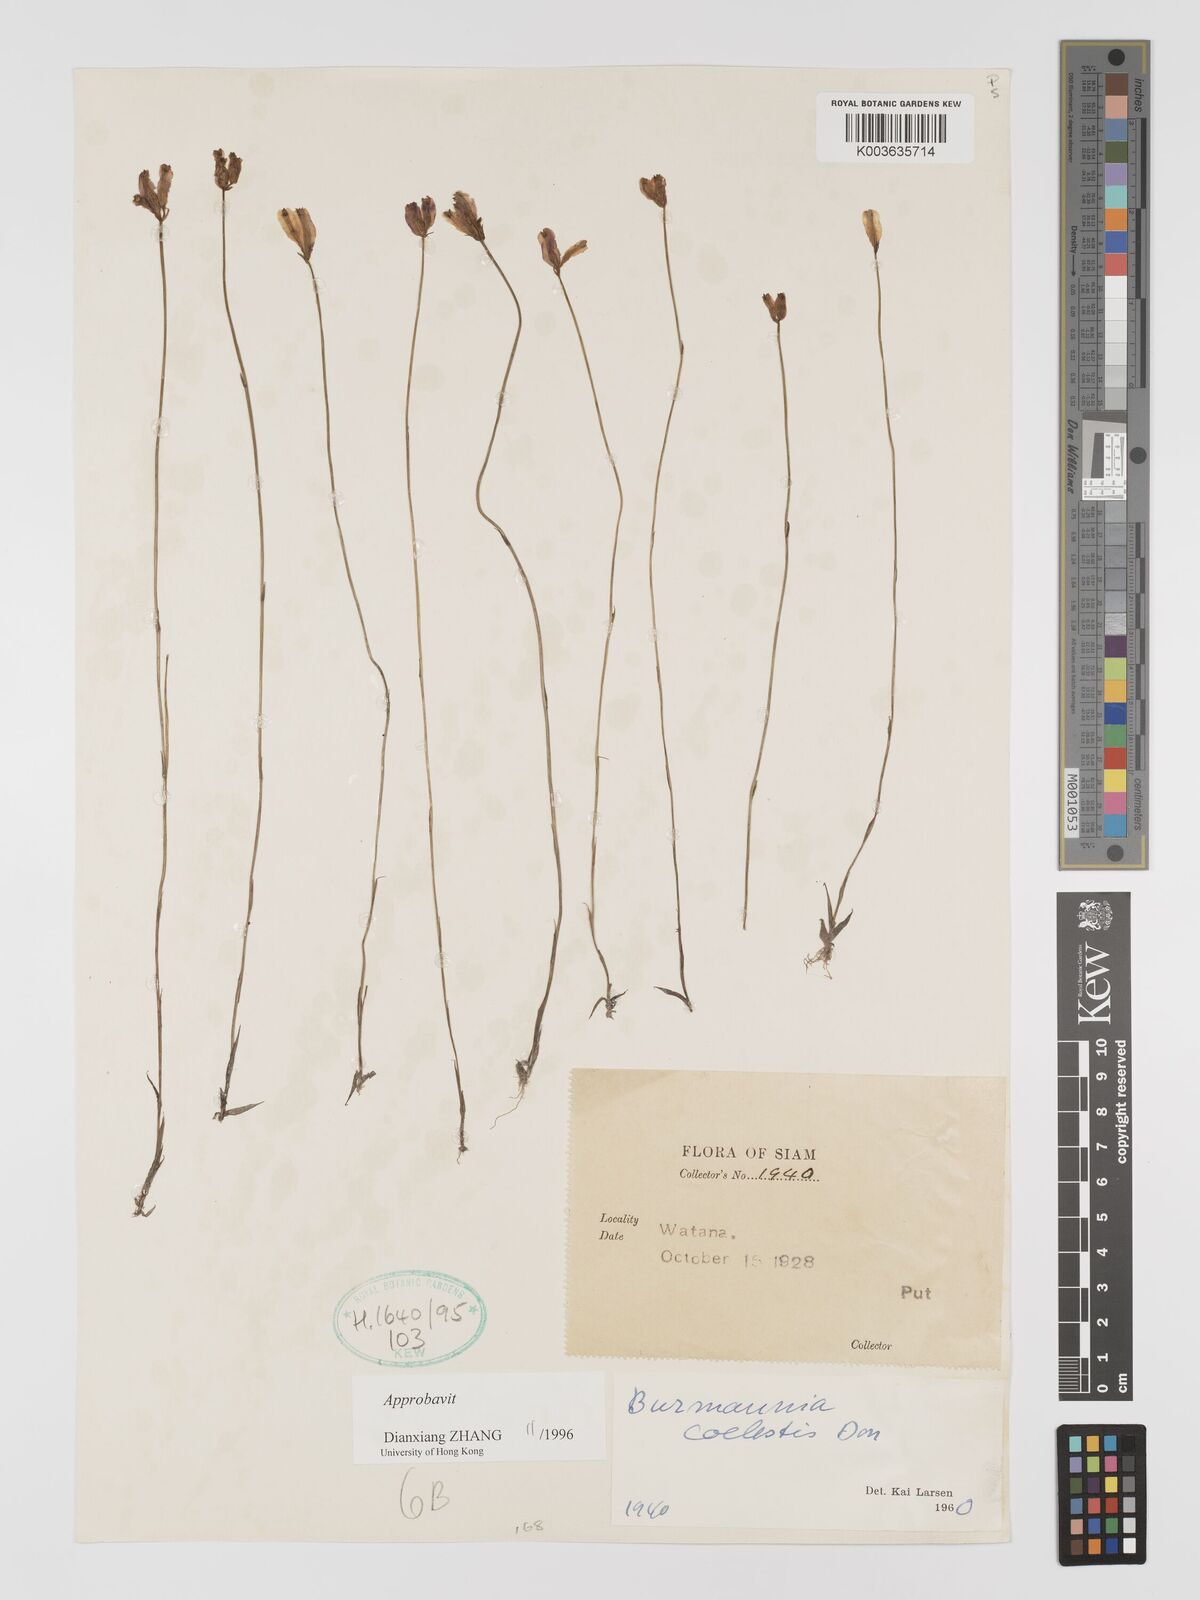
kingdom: Plantae
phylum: Tracheophyta
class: Liliopsida
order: Dioscoreales
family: Burmanniaceae
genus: Burmannia
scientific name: Burmannia coelestis
